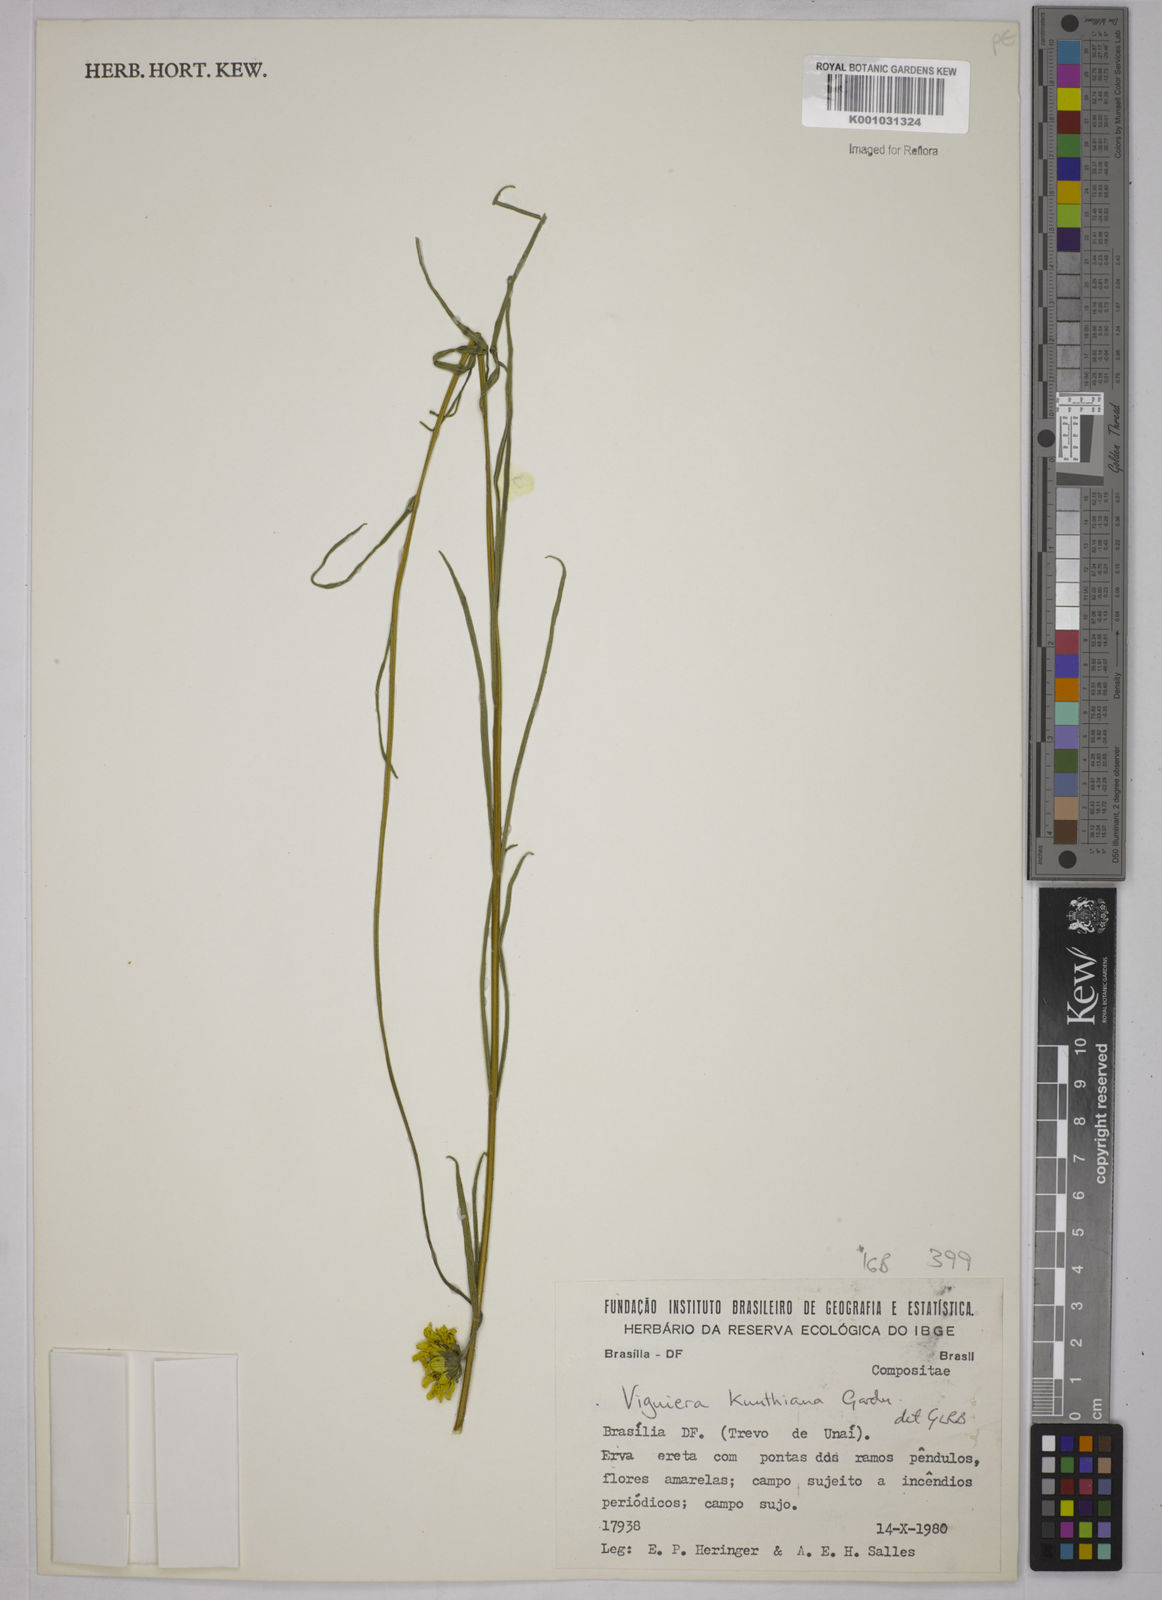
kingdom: Plantae
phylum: Tracheophyta
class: Magnoliopsida
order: Asterales
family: Asteraceae
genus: Aldama
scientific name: Aldama kunthiana
